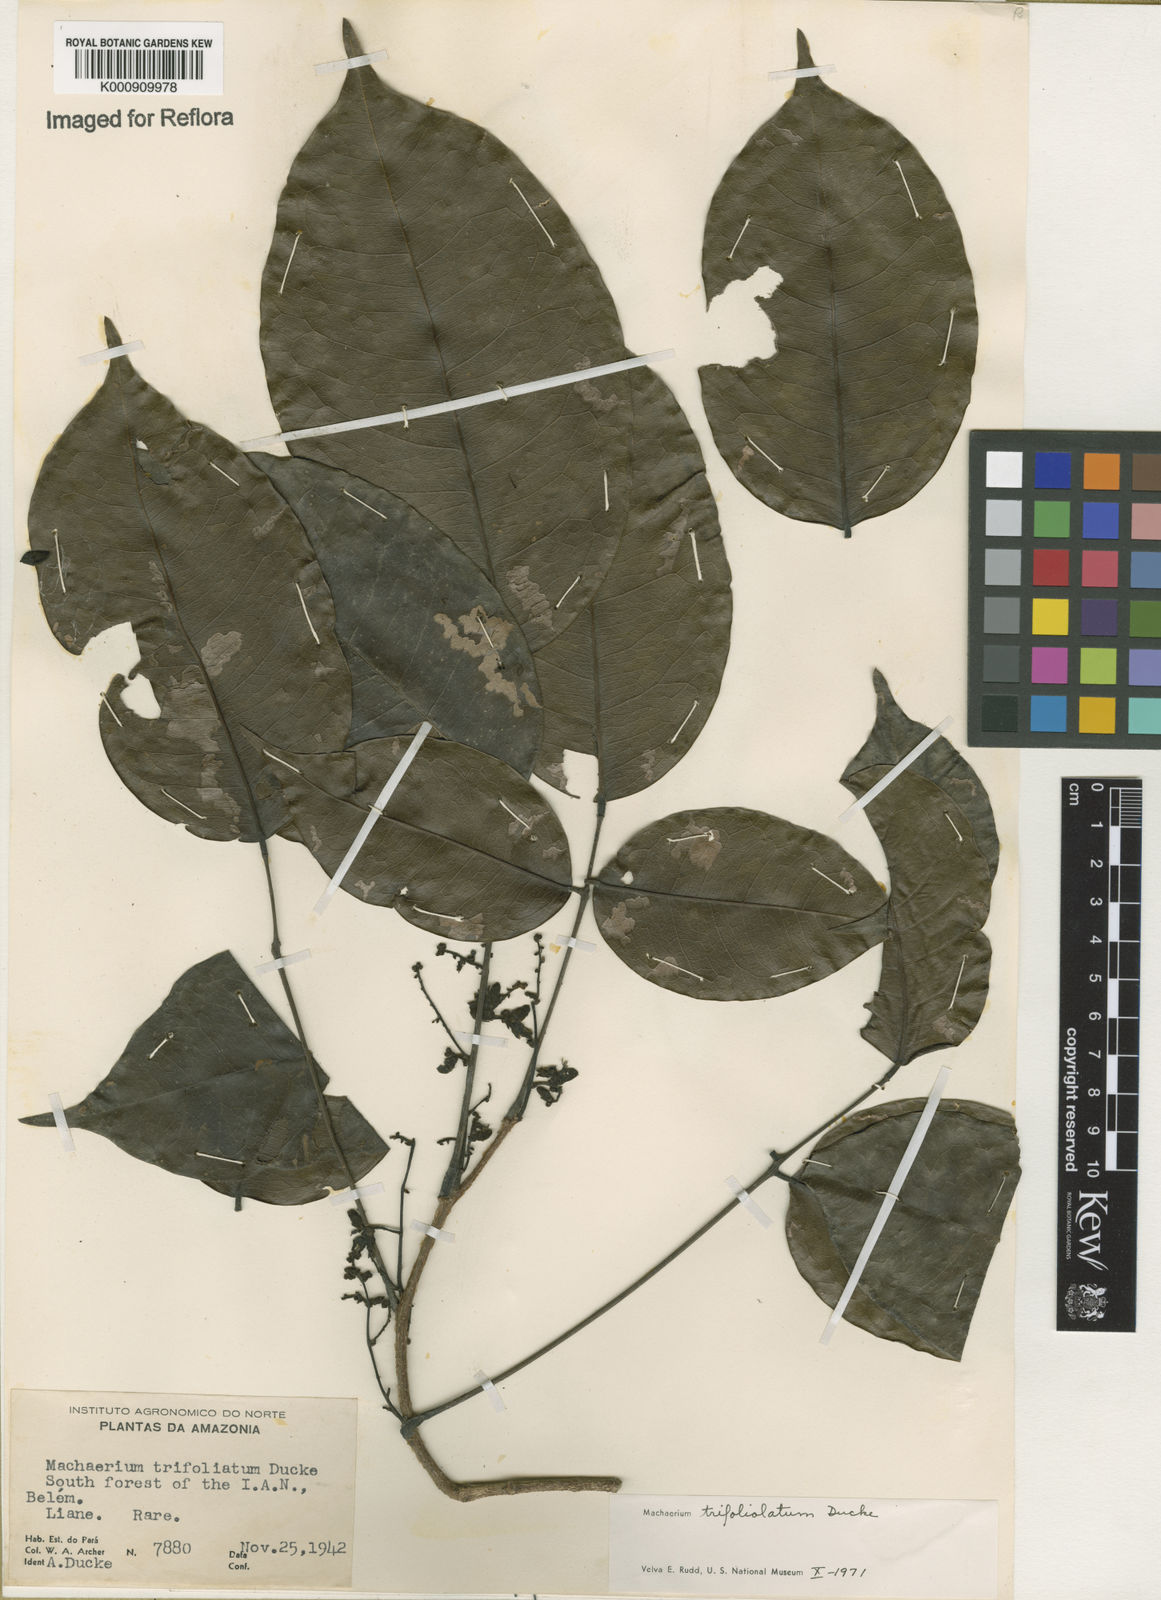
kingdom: Plantae
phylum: Tracheophyta
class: Magnoliopsida
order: Fabales
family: Fabaceae
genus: Machaerium
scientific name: Machaerium trifoliolatum
